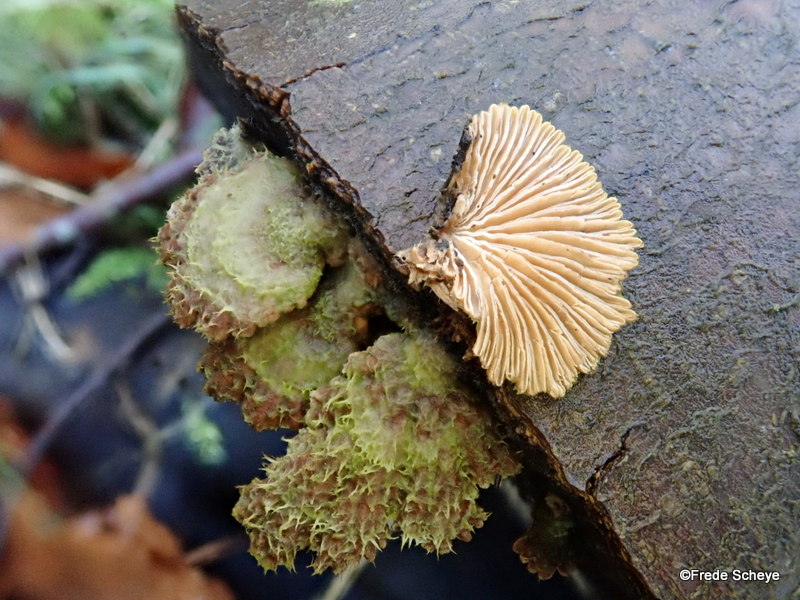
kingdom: Fungi
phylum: Basidiomycota
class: Agaricomycetes
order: Agaricales
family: Schizophyllaceae
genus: Schizophyllum
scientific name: Schizophyllum commune
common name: kløvblad
